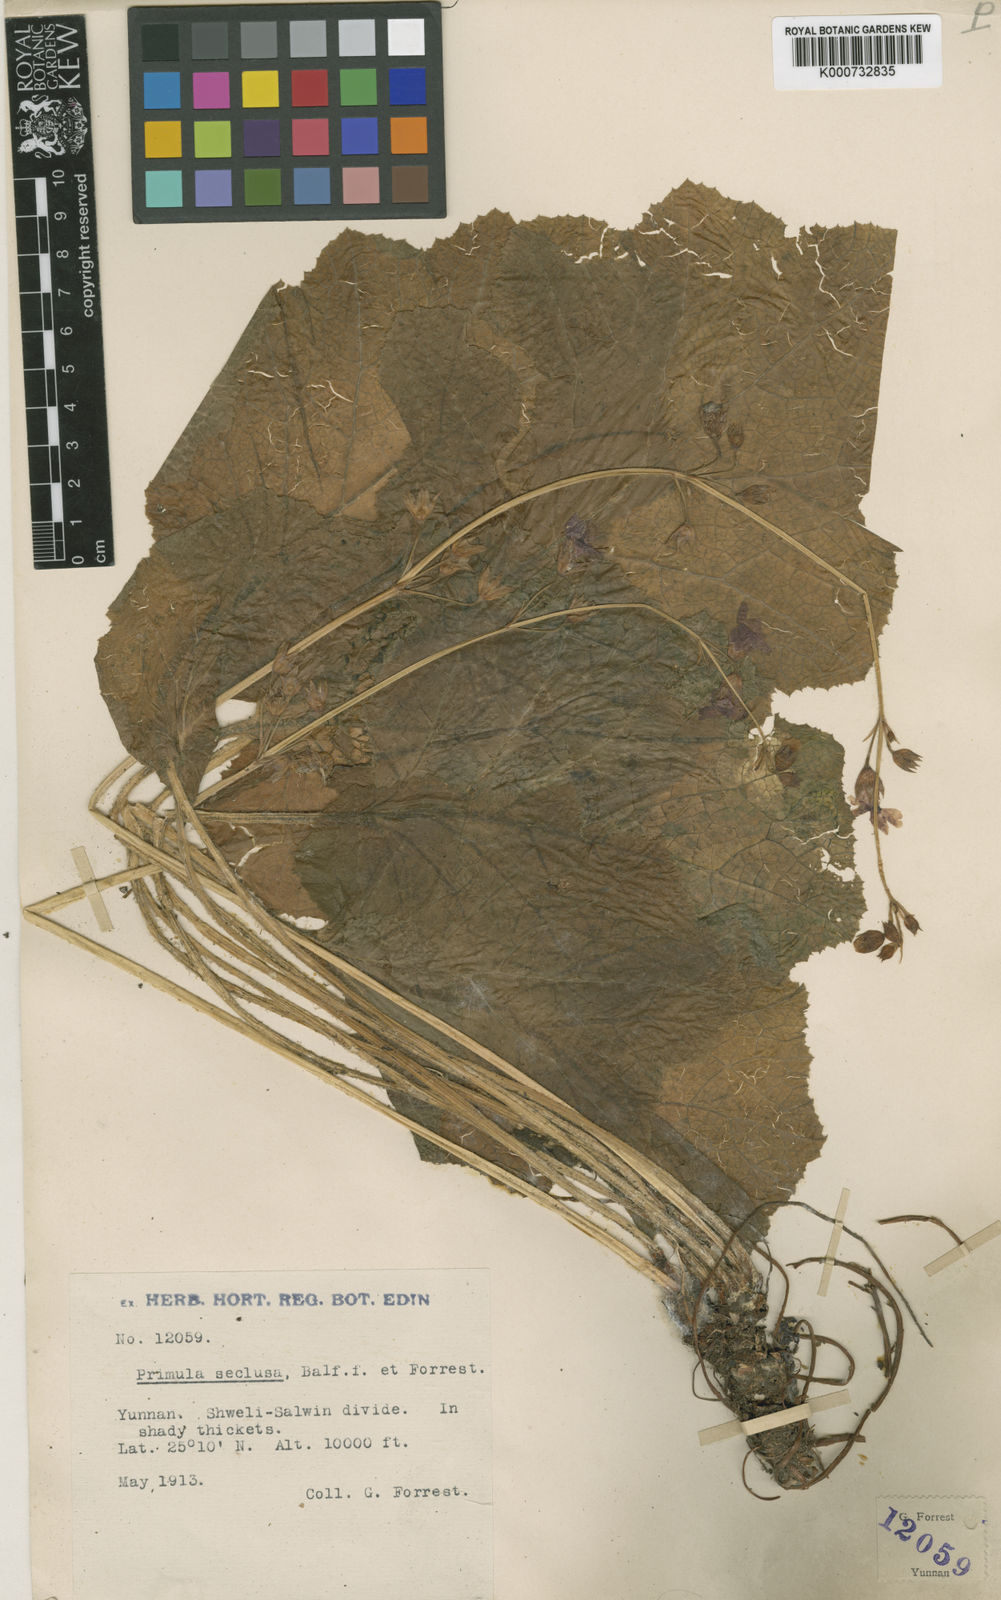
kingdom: Plantae
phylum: Tracheophyta
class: Magnoliopsida
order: Ericales
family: Primulaceae
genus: Primula
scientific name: Primula mollis
